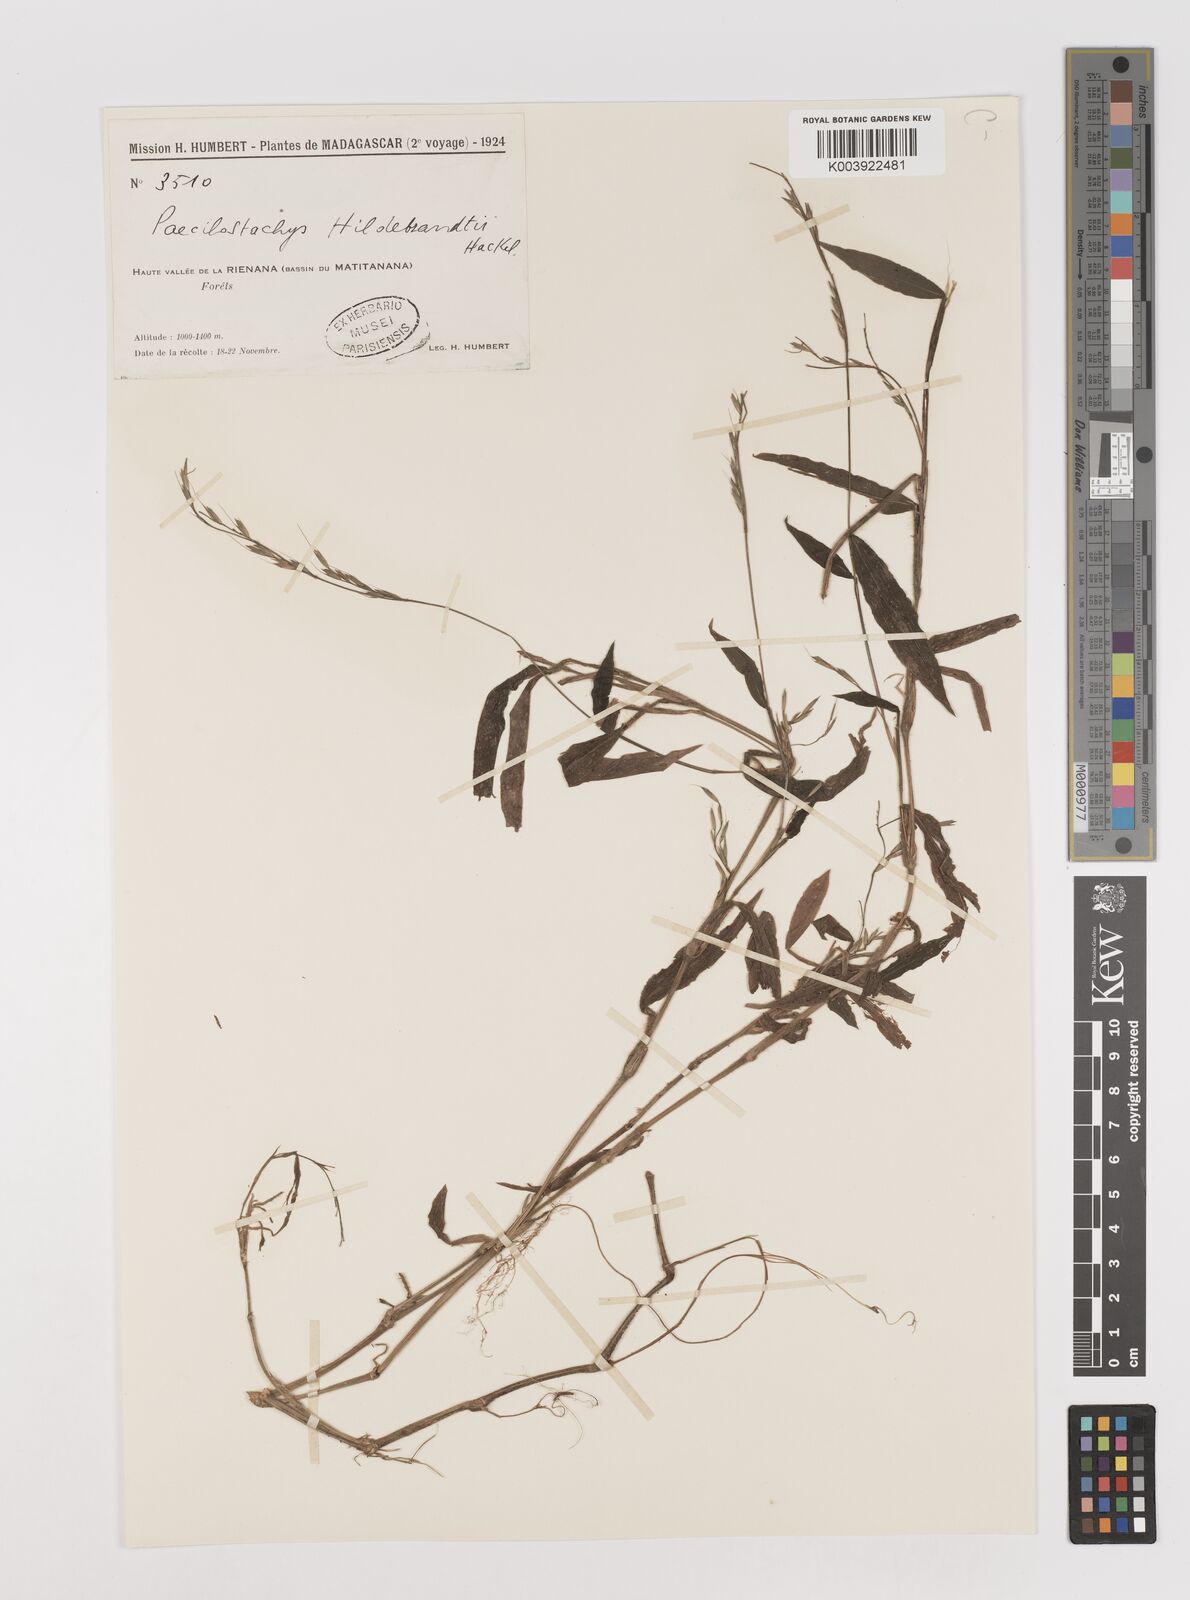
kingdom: Plantae
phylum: Tracheophyta
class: Liliopsida
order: Poales
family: Poaceae
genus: Poecilostachys
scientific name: Poecilostachys hildebrandtii
